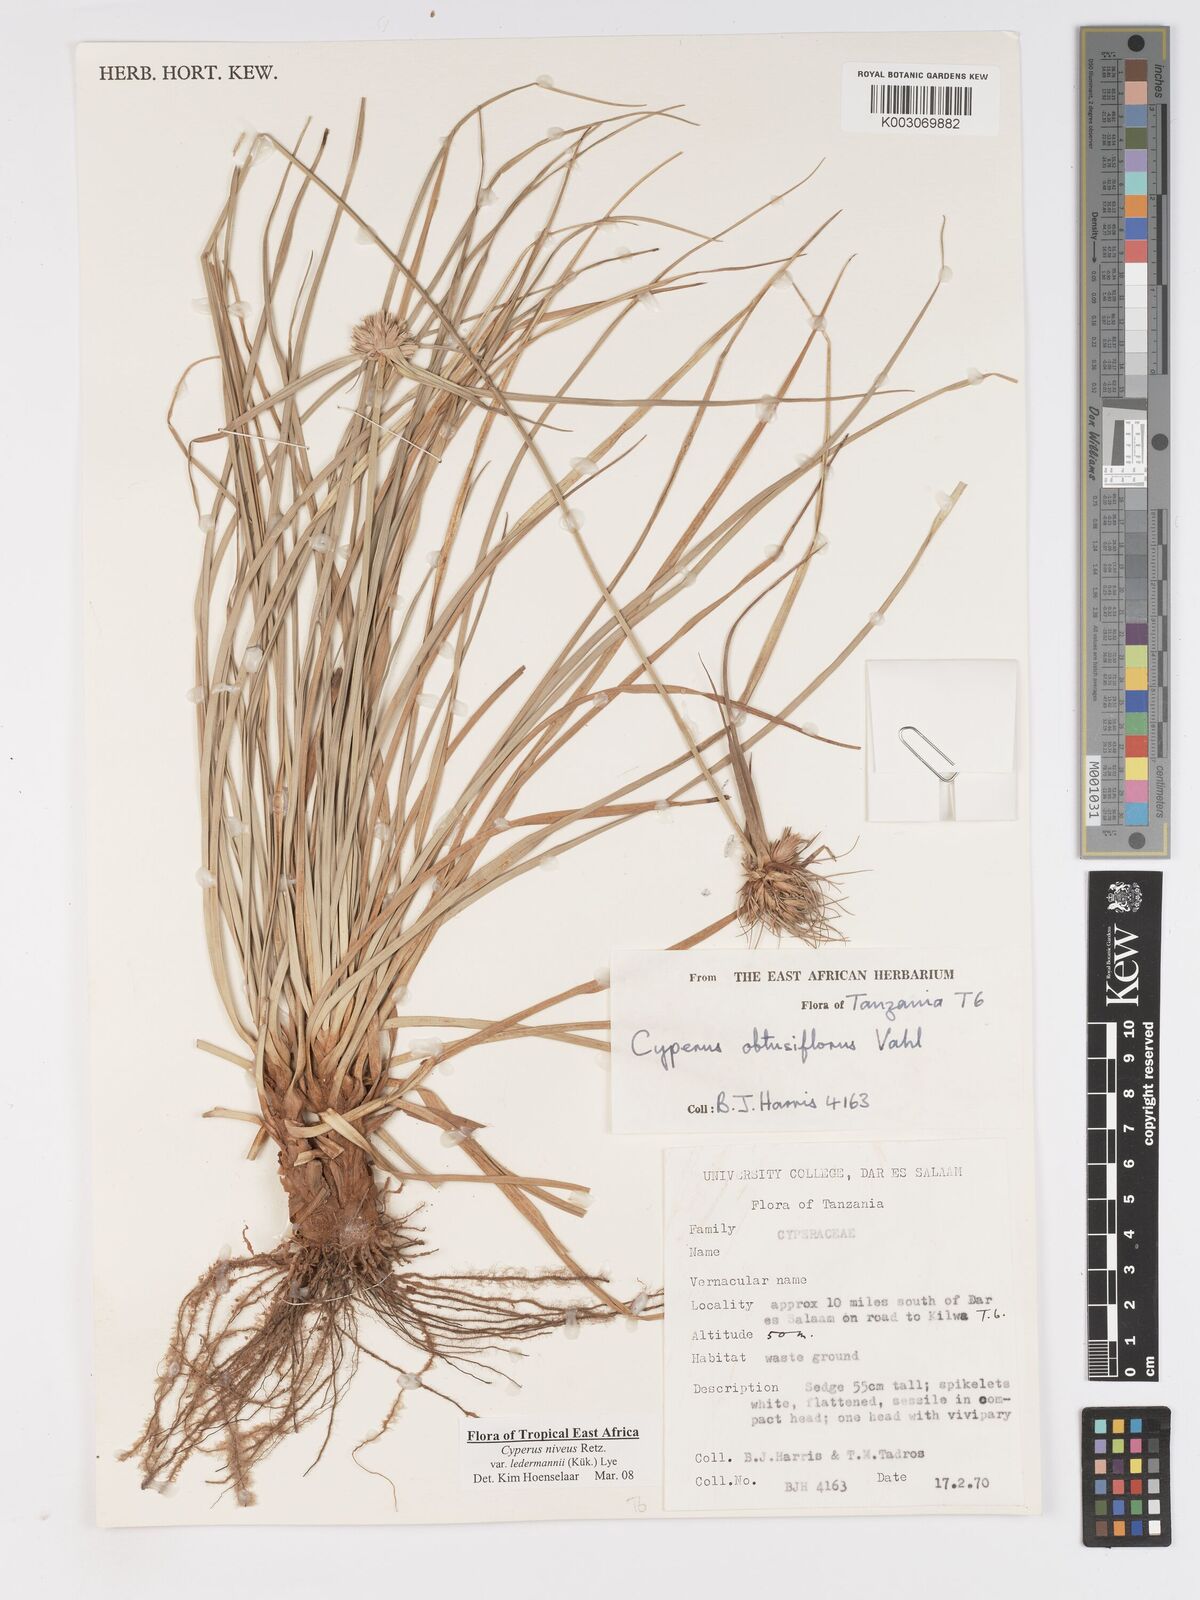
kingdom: Plantae
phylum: Tracheophyta
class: Liliopsida
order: Poales
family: Cyperaceae
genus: Cyperus
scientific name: Cyperus niveus
